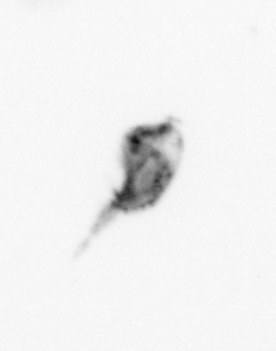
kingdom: Animalia
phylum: Arthropoda
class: Copepoda
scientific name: Copepoda
